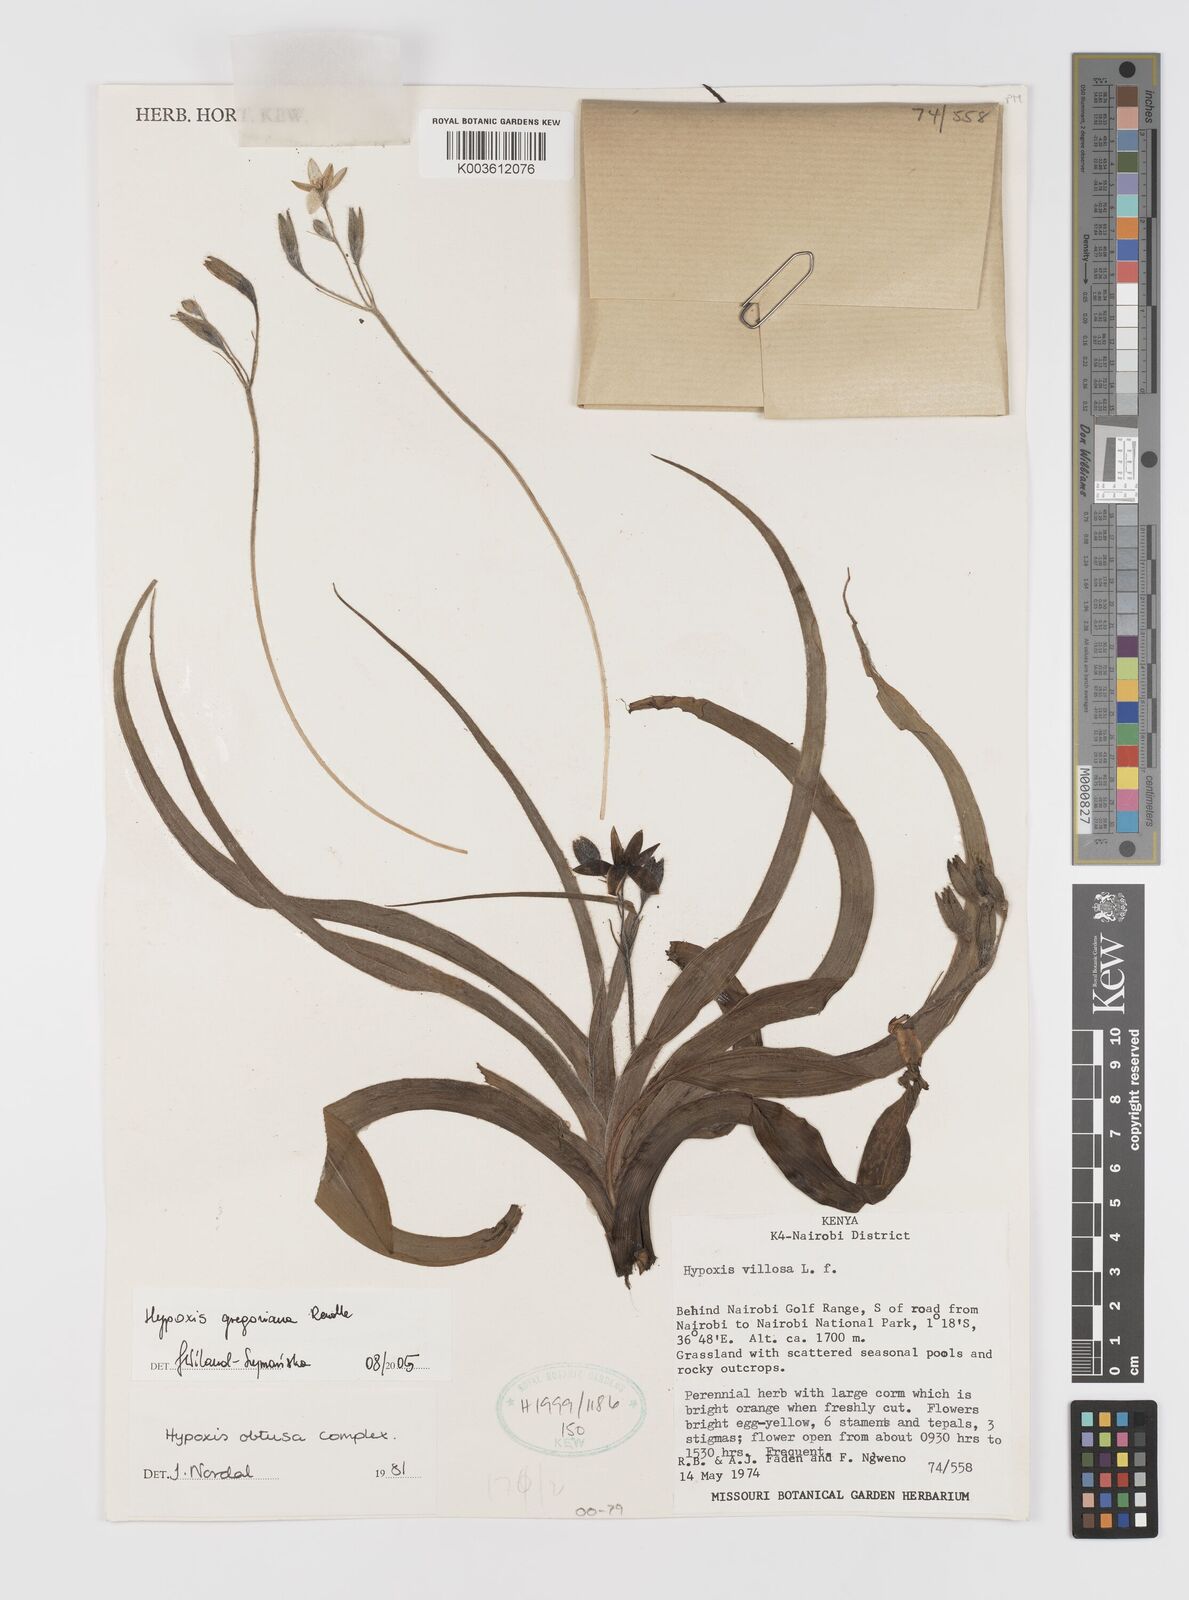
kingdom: Plantae
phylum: Tracheophyta
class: Liliopsida
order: Asparagales
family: Hypoxidaceae
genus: Hypoxis
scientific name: Hypoxis gregoriana
